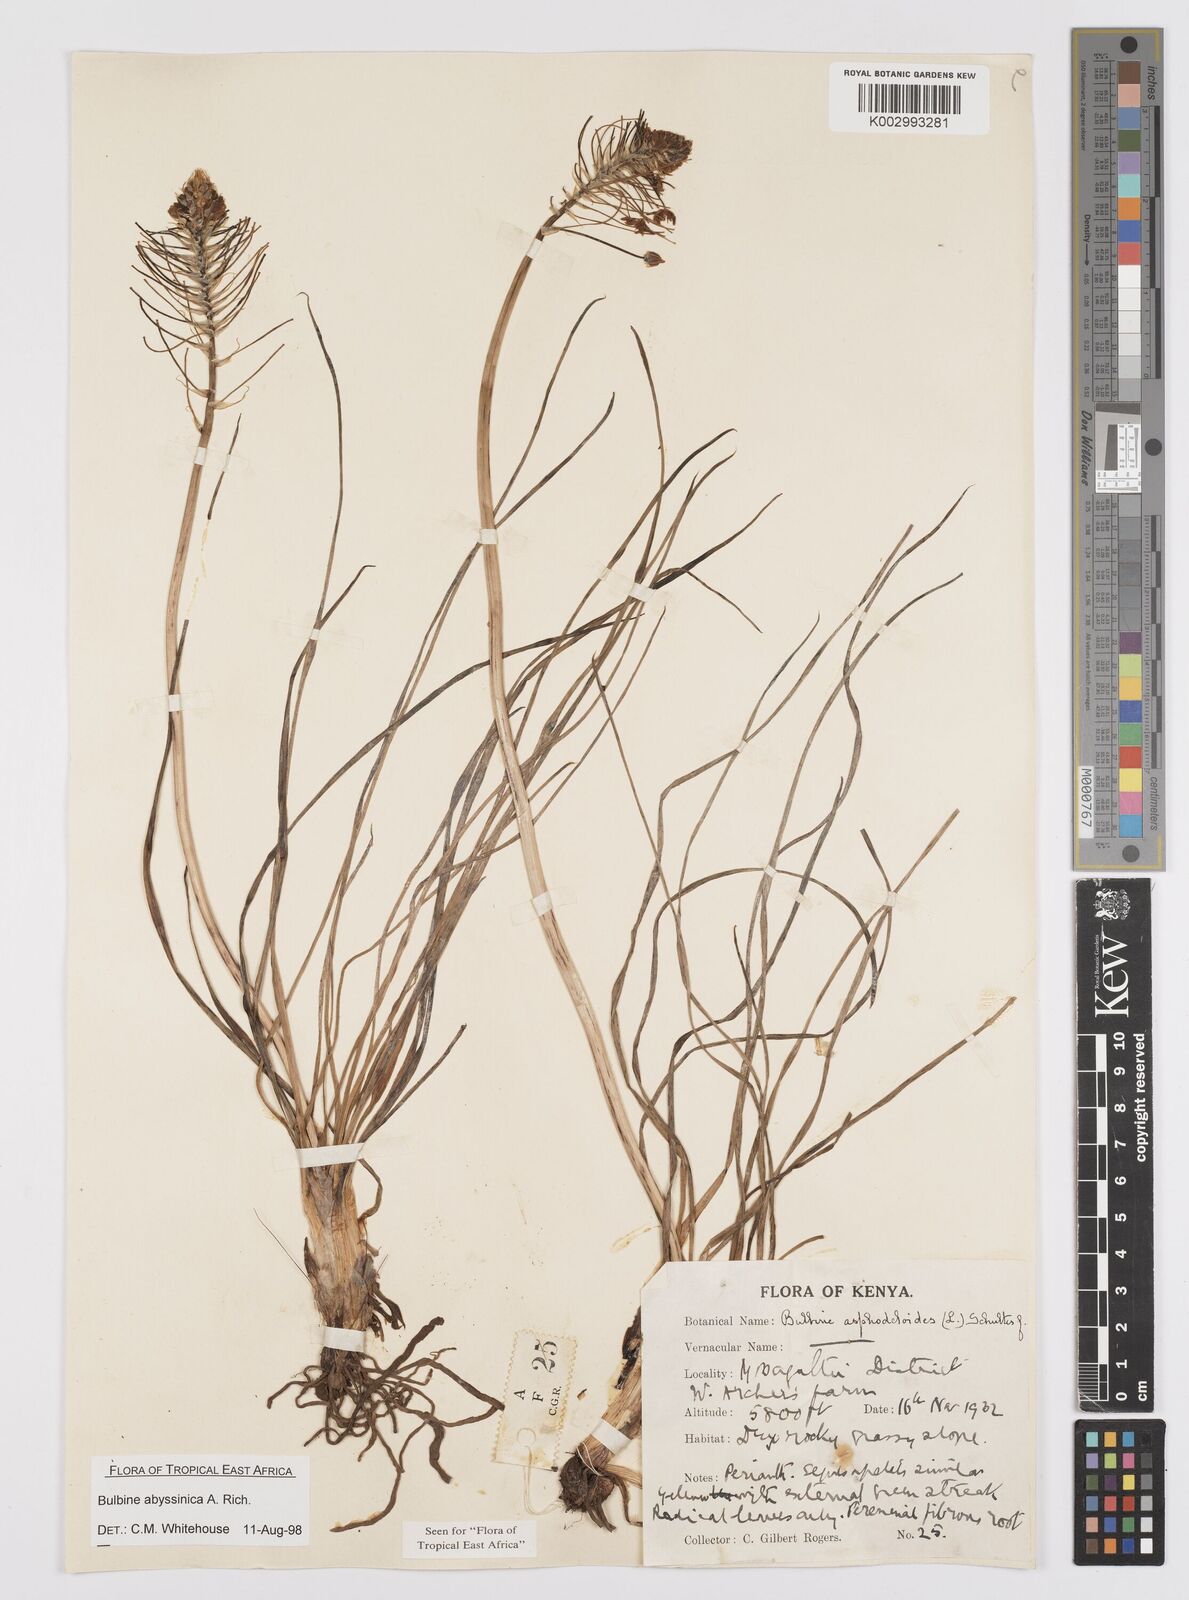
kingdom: Plantae
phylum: Tracheophyta
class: Liliopsida
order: Asparagales
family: Asphodelaceae
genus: Bulbine
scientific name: Bulbine abyssinica
